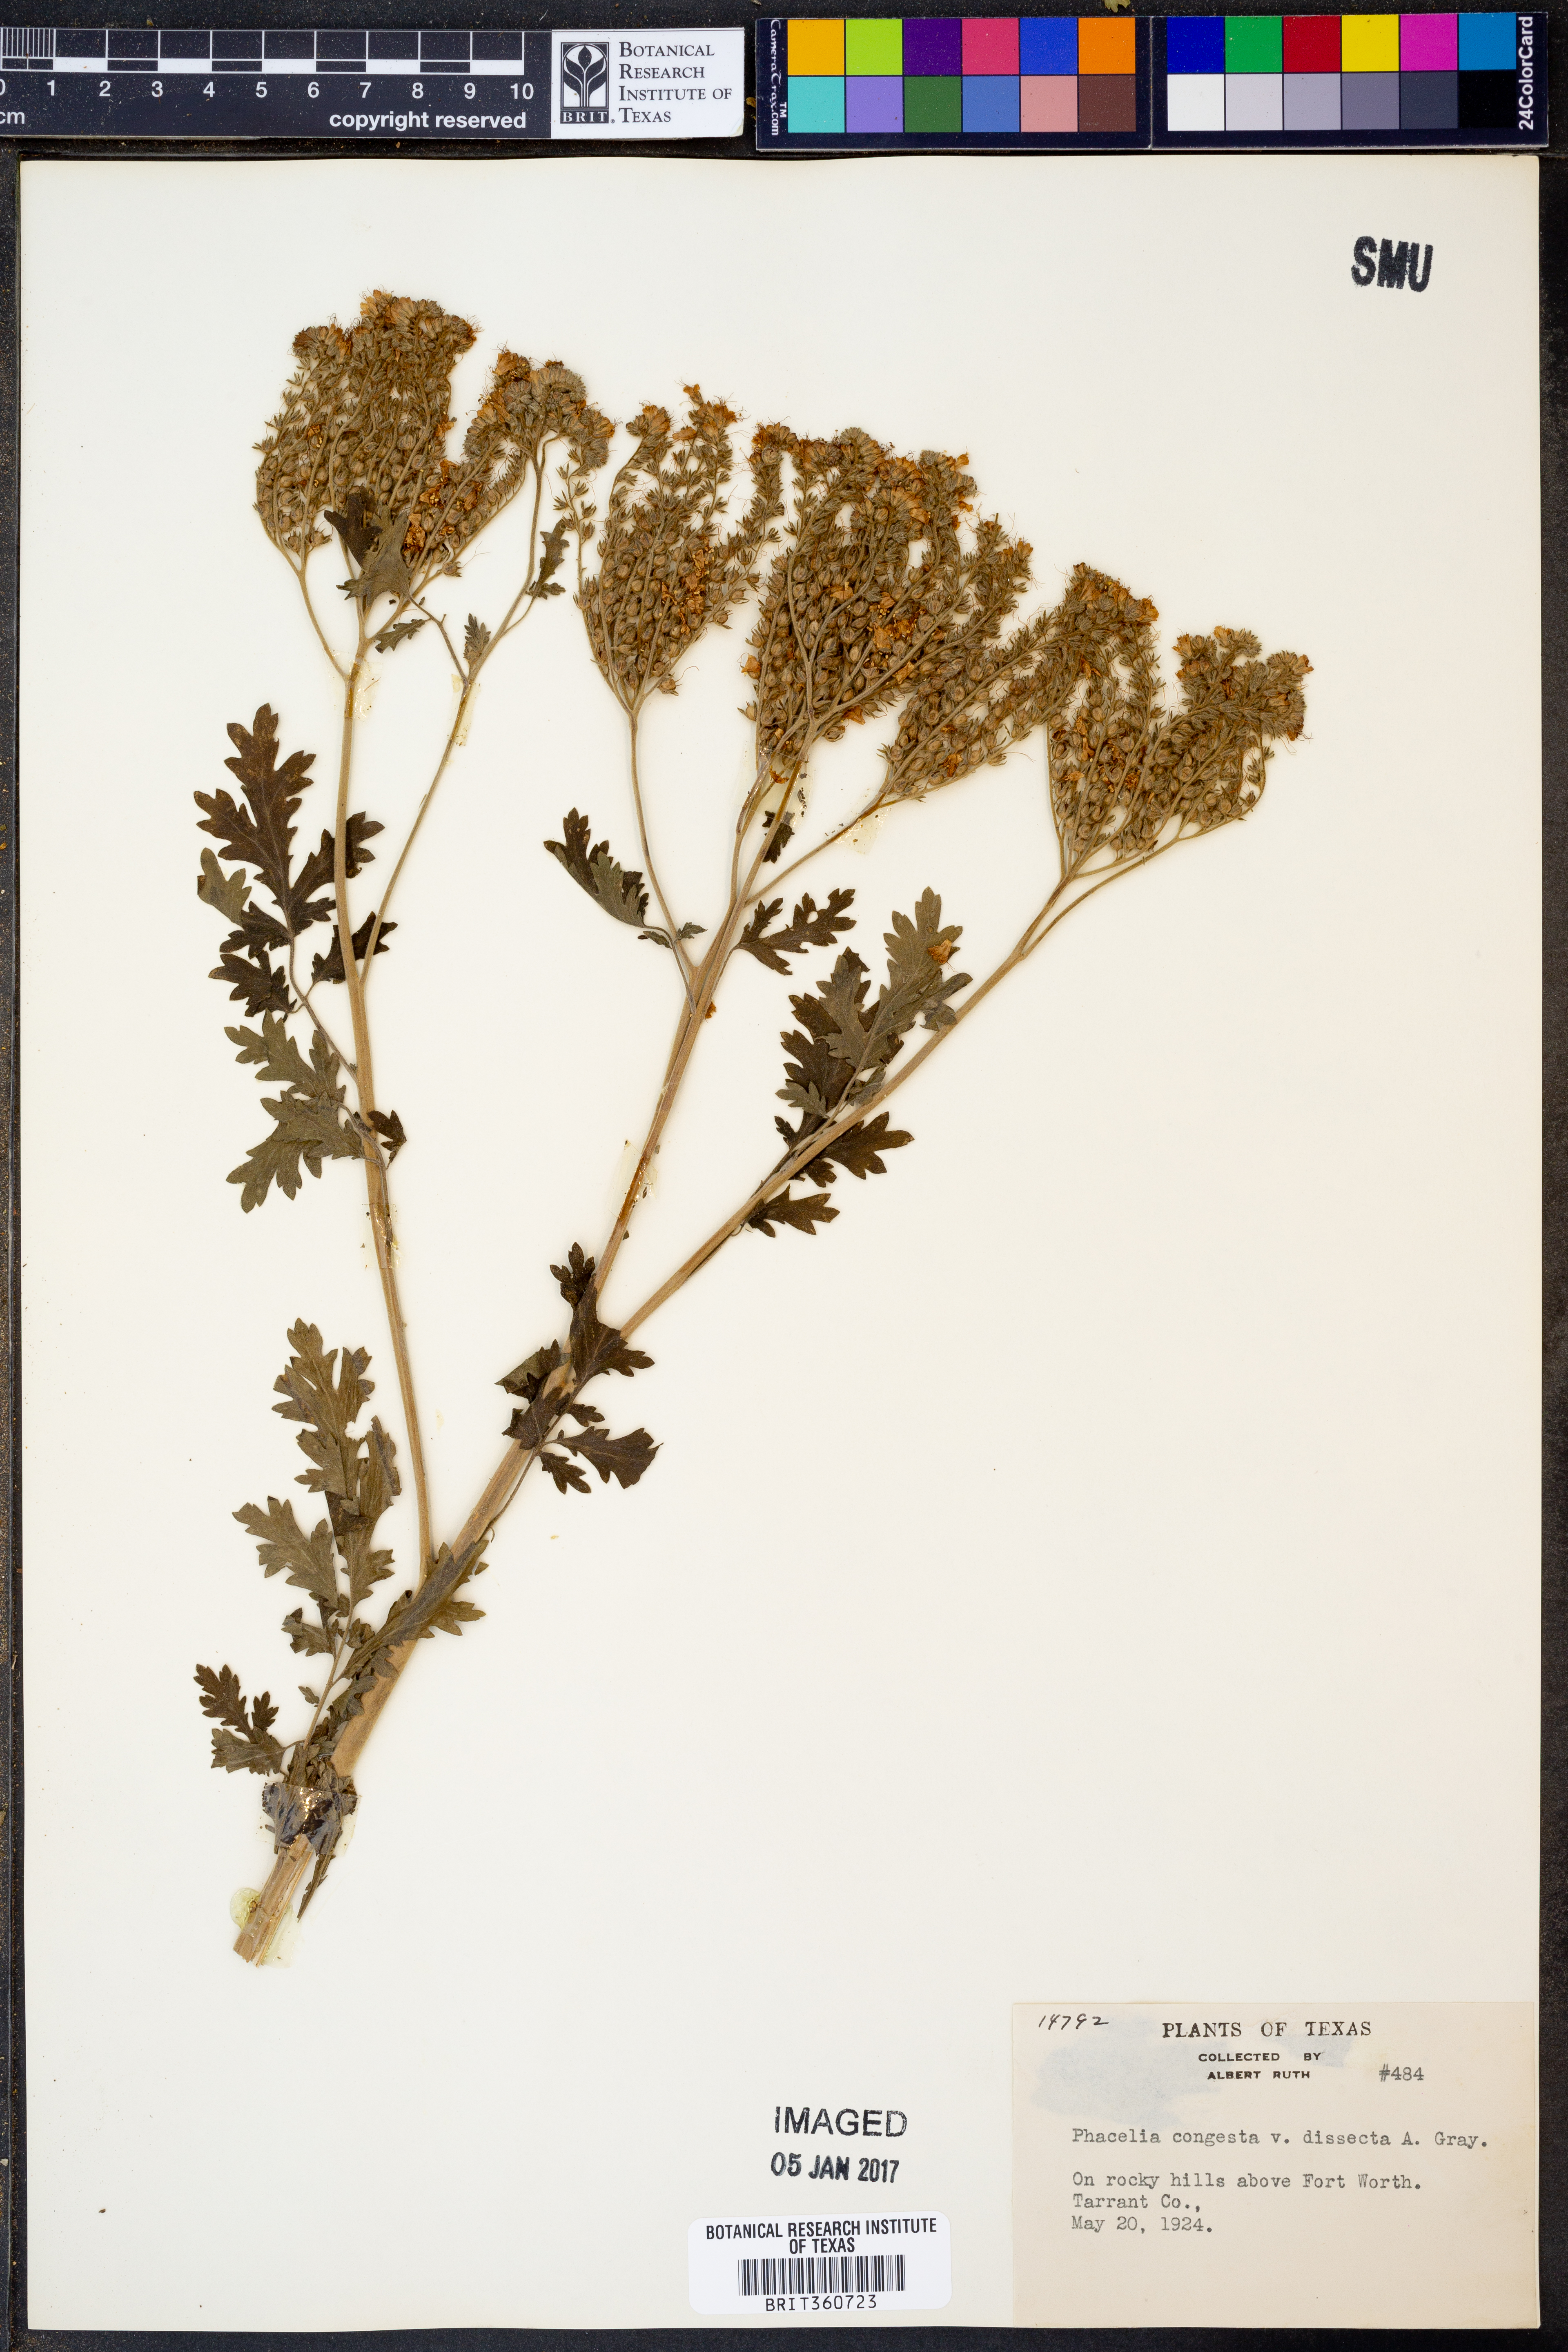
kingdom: Plantae
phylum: Tracheophyta
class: Magnoliopsida
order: Boraginales
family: Hydrophyllaceae
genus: Phacelia
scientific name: Phacelia congesta
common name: Blue curls
